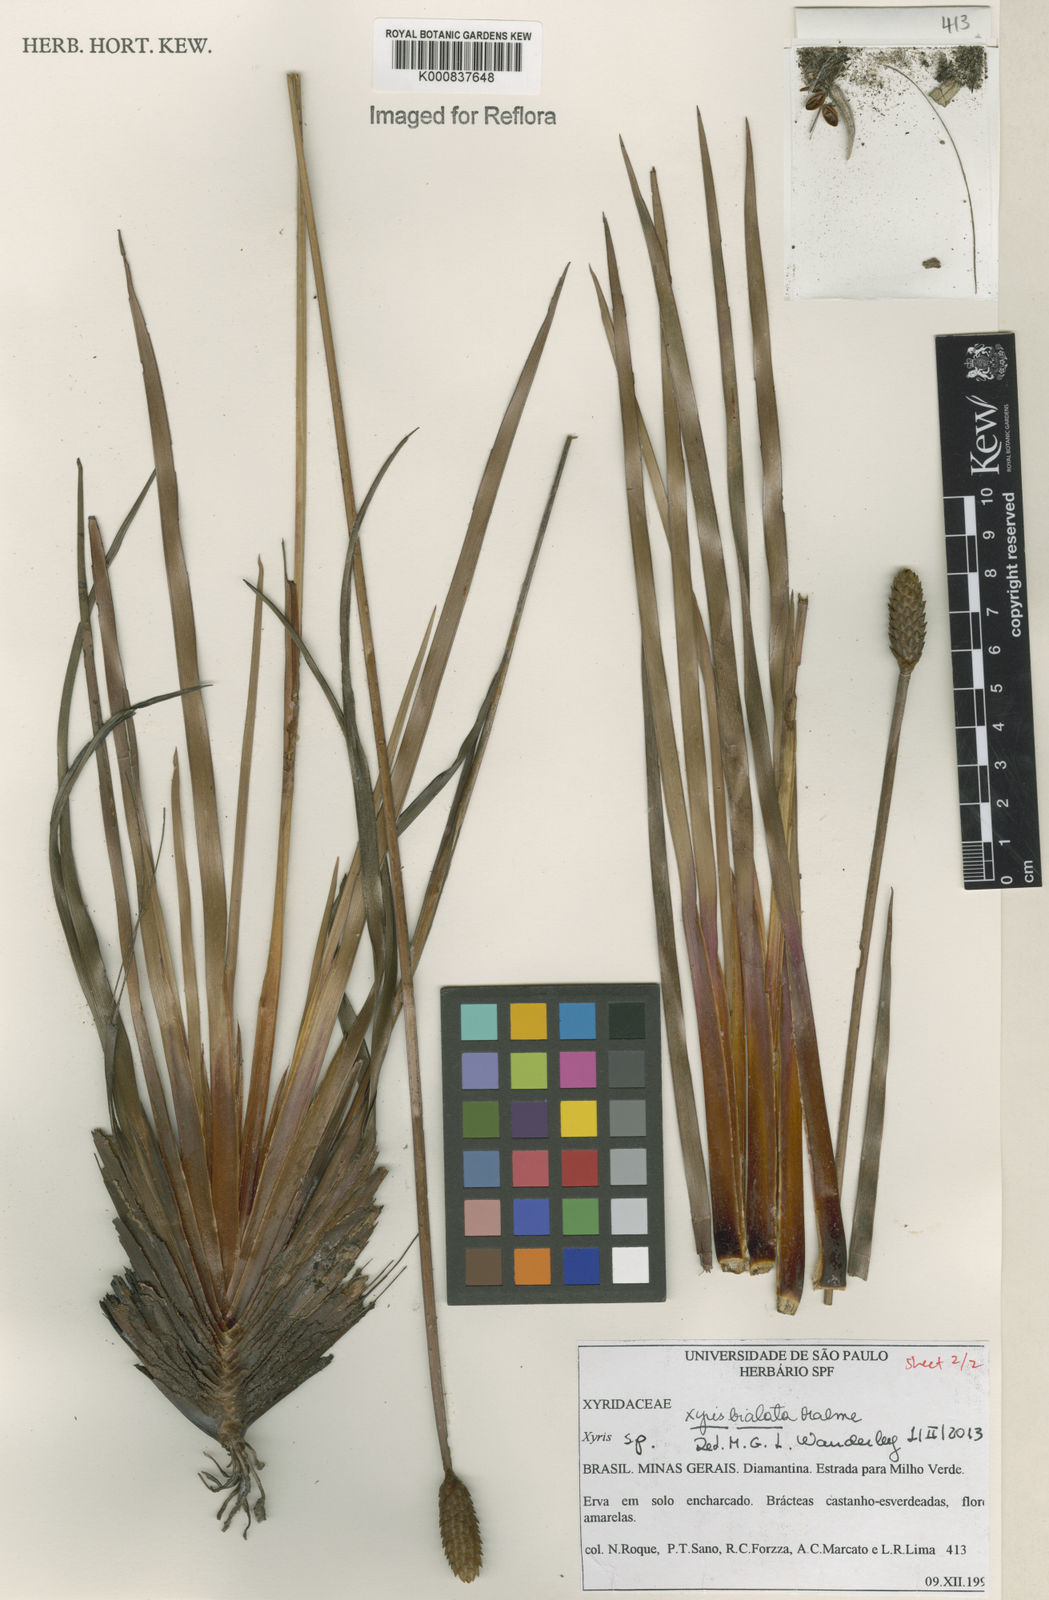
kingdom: Plantae
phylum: Tracheophyta
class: Liliopsida
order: Poales
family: Xyridaceae
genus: Xyris
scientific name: Xyris bialata
